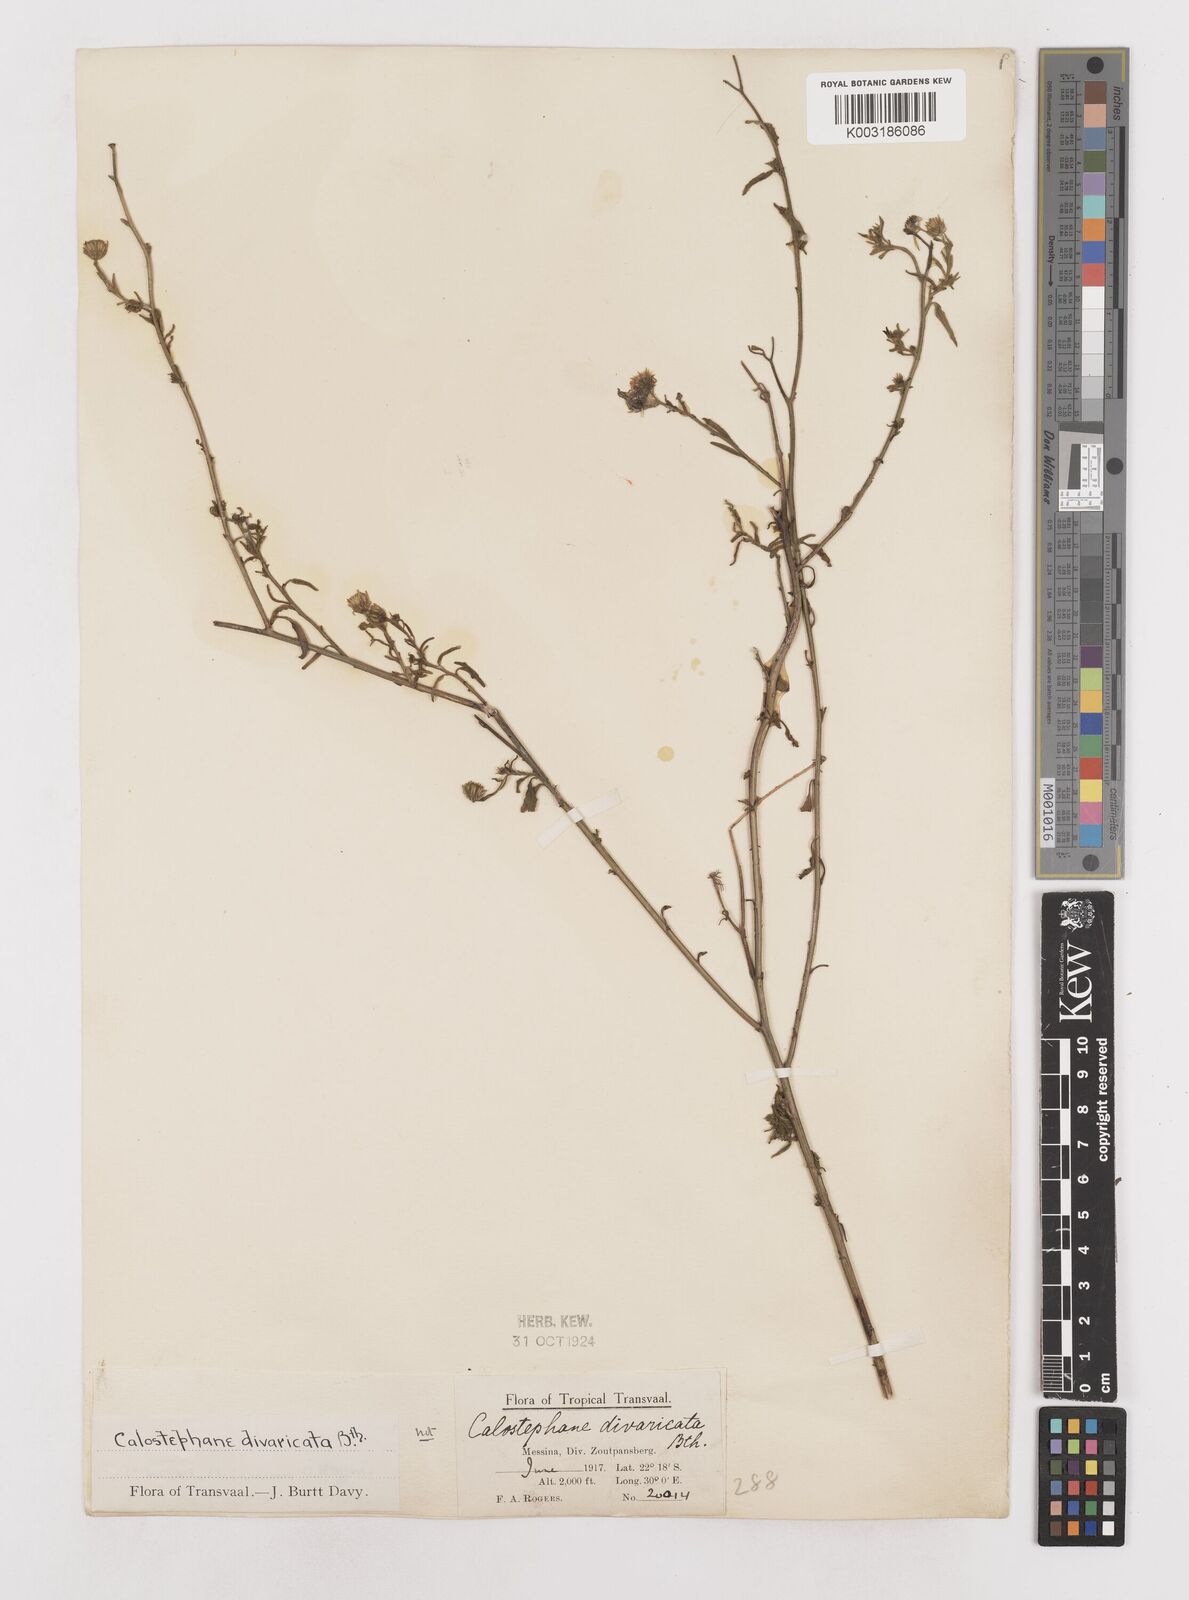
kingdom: Plantae
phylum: Tracheophyta
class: Magnoliopsida
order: Asterales
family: Asteraceae
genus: Calostephane
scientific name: Calostephane divaricata
